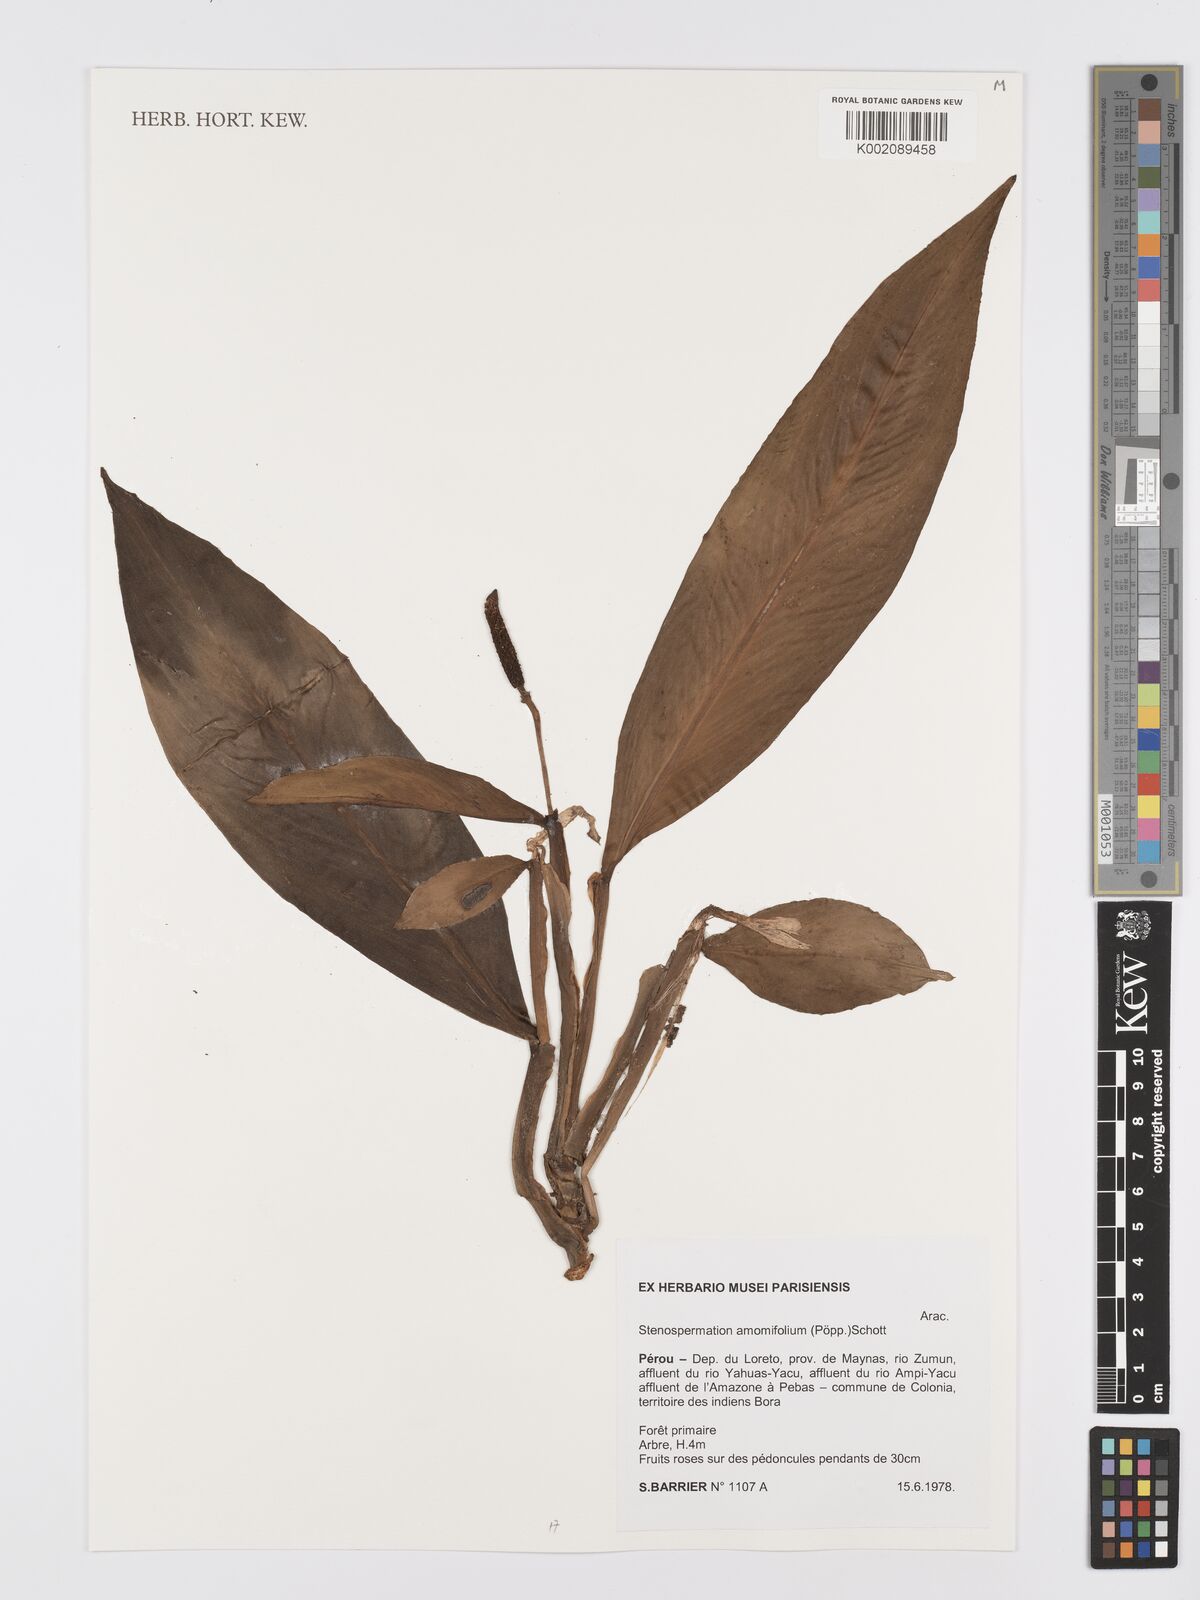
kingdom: Plantae
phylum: Tracheophyta
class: Liliopsida
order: Alismatales
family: Araceae
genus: Stenospermation
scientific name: Stenospermation amomifolium
